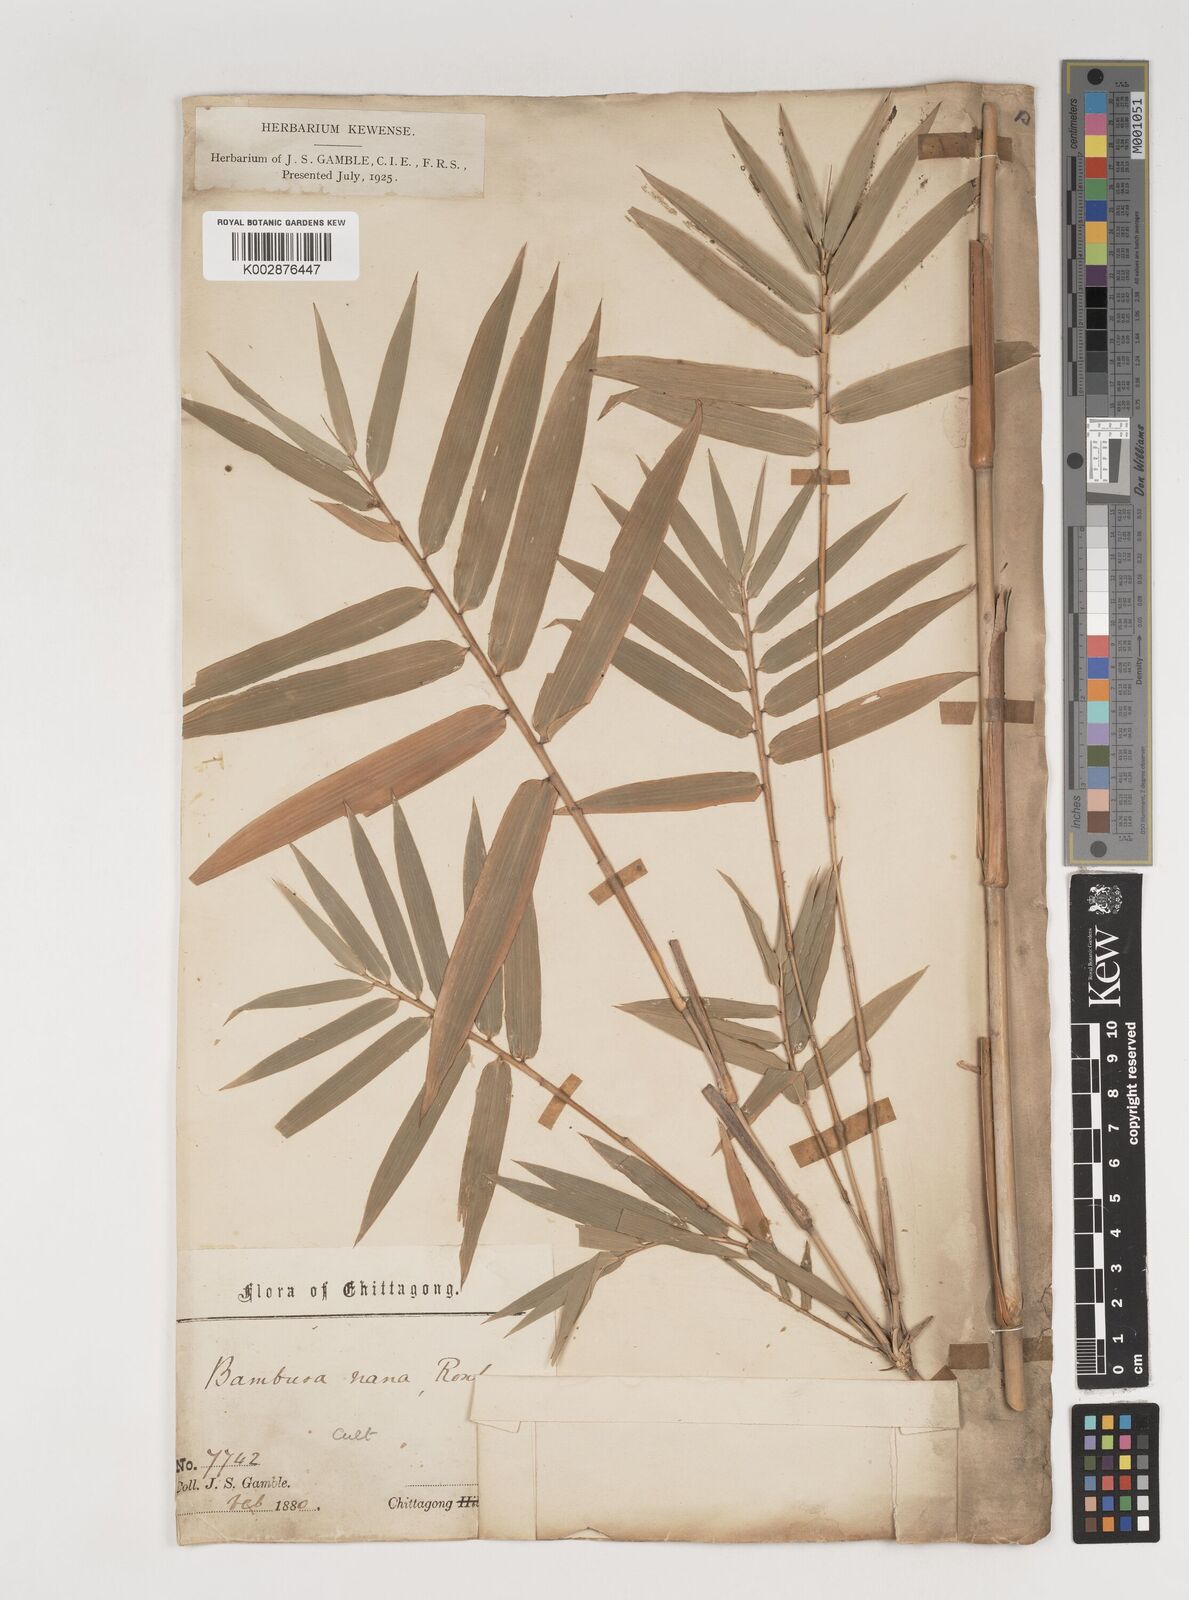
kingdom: Plantae
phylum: Tracheophyta
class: Liliopsida
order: Poales
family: Poaceae
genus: Bambusa
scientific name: Bambusa multiplex
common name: Hedge bamboo
